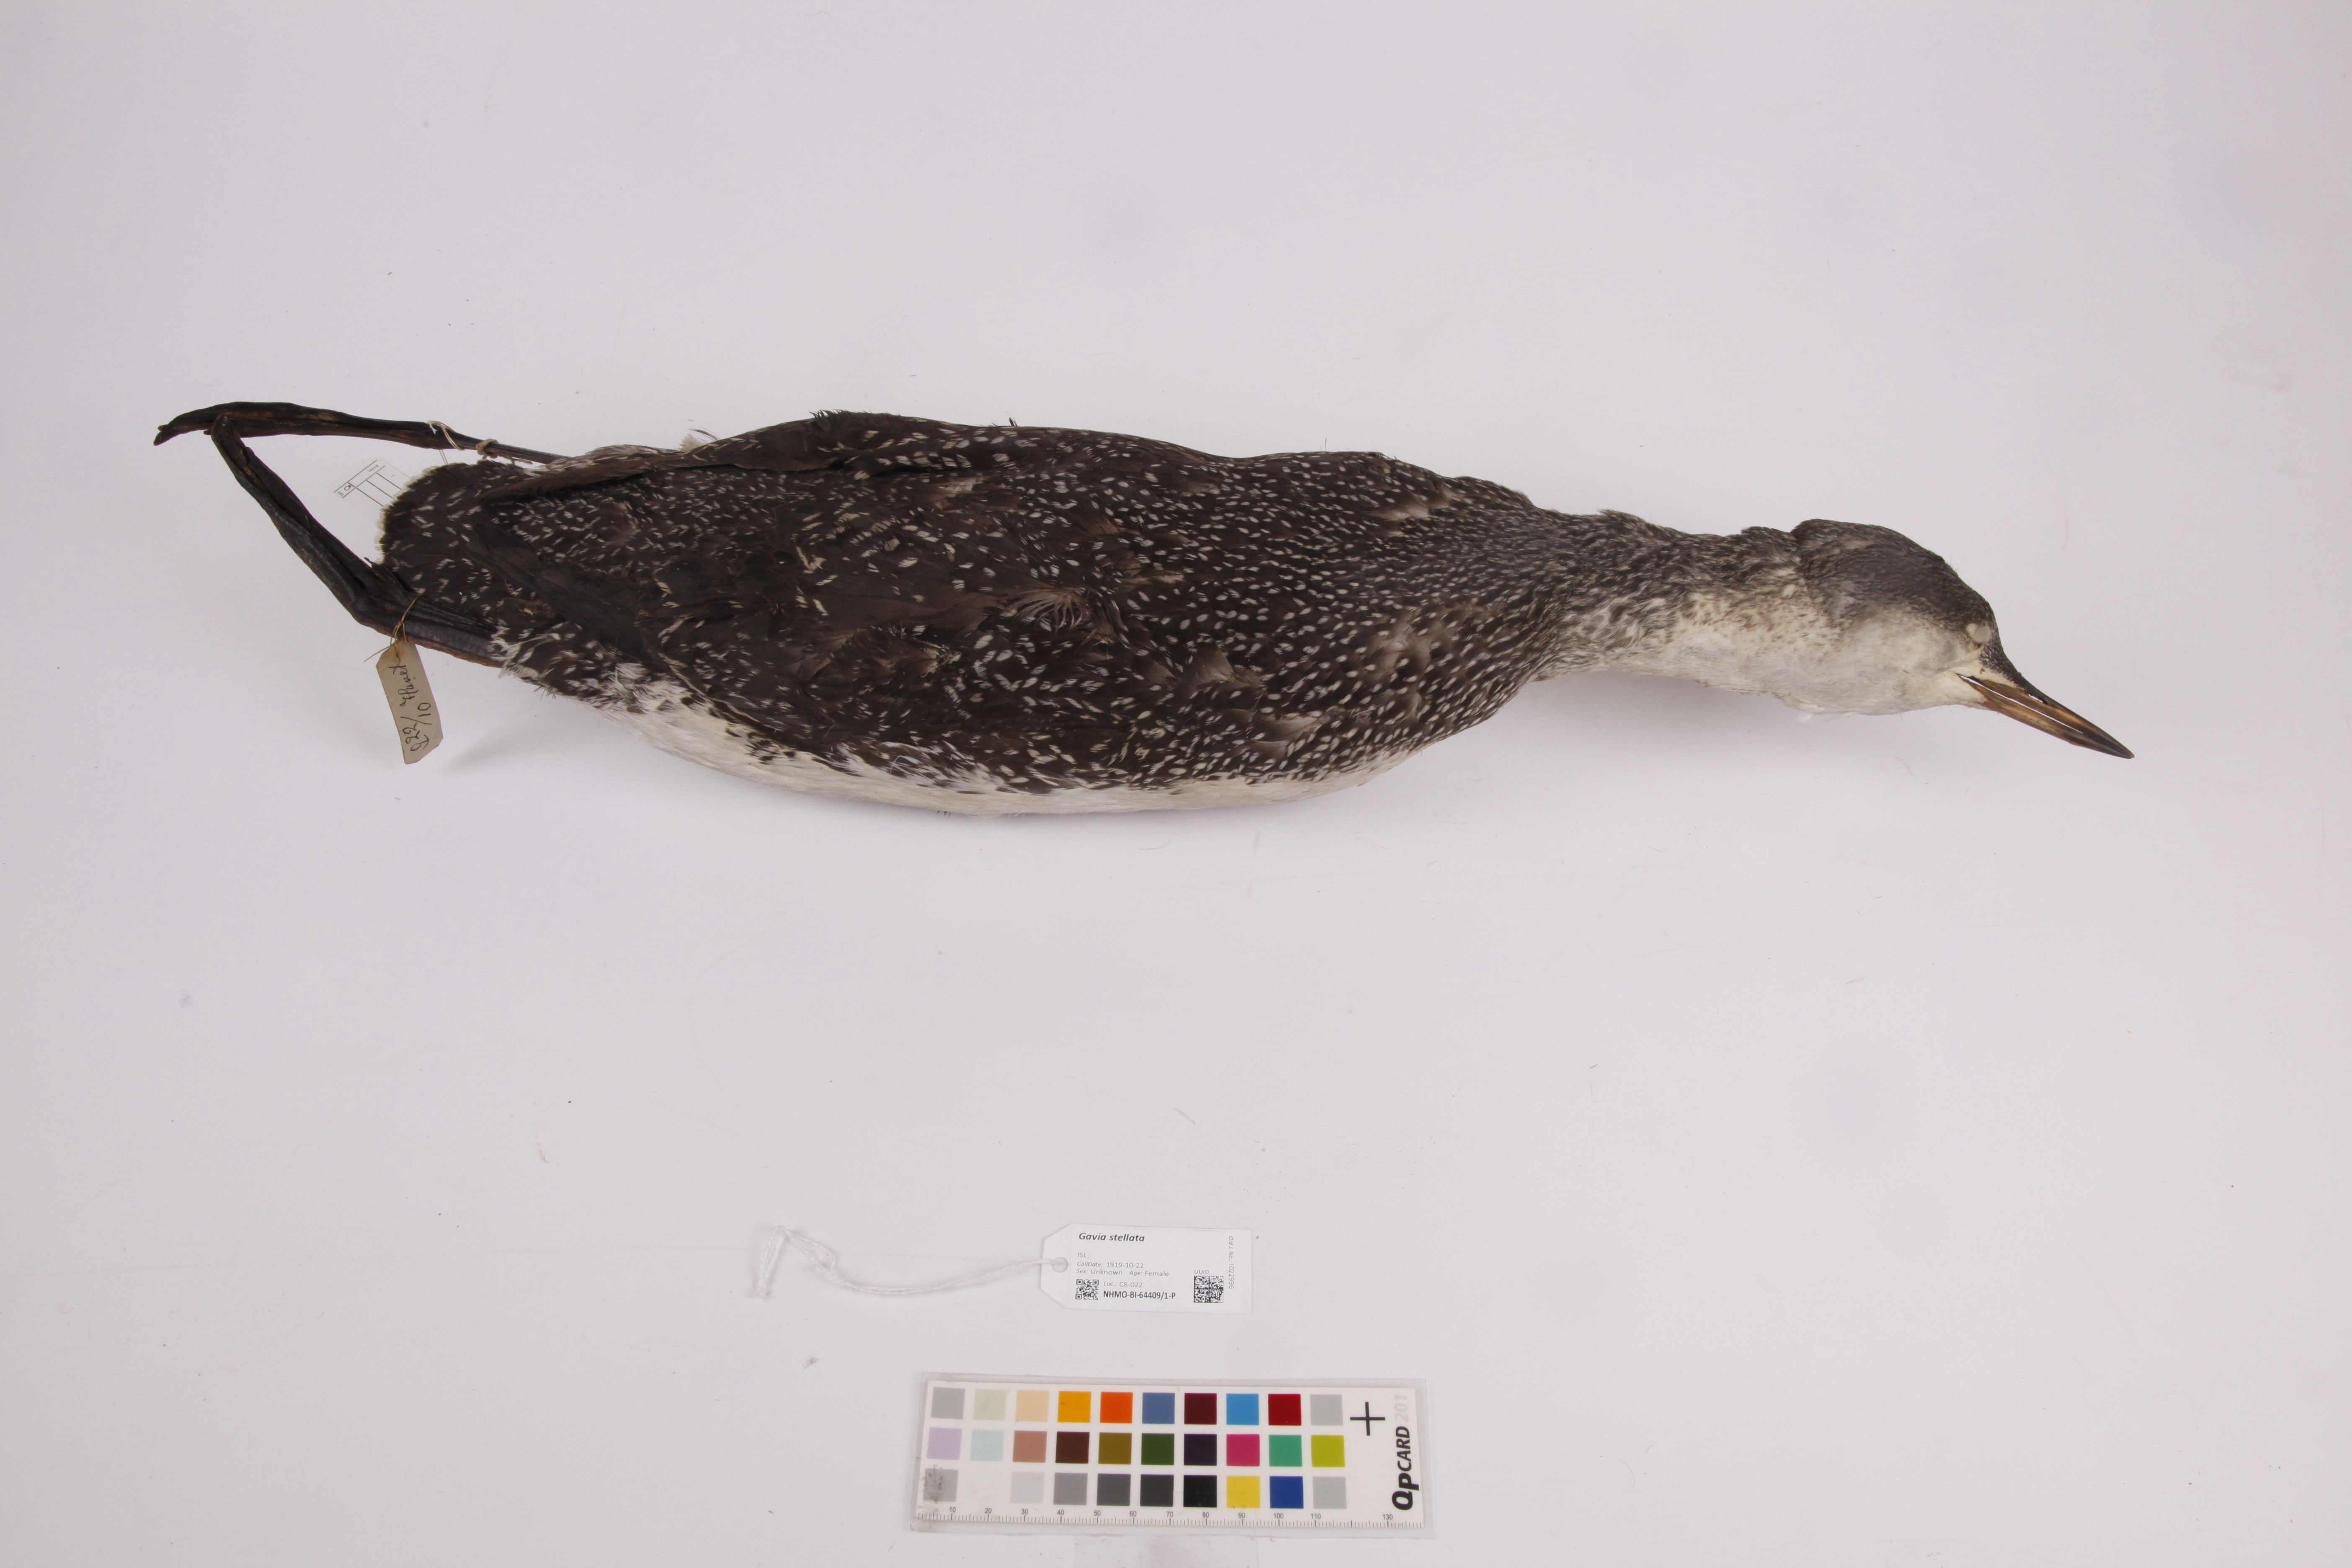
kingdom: Animalia
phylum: Chordata
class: Aves
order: Gaviiformes
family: Gaviidae
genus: Gavia
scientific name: Gavia stellata
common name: Red-throated loon
